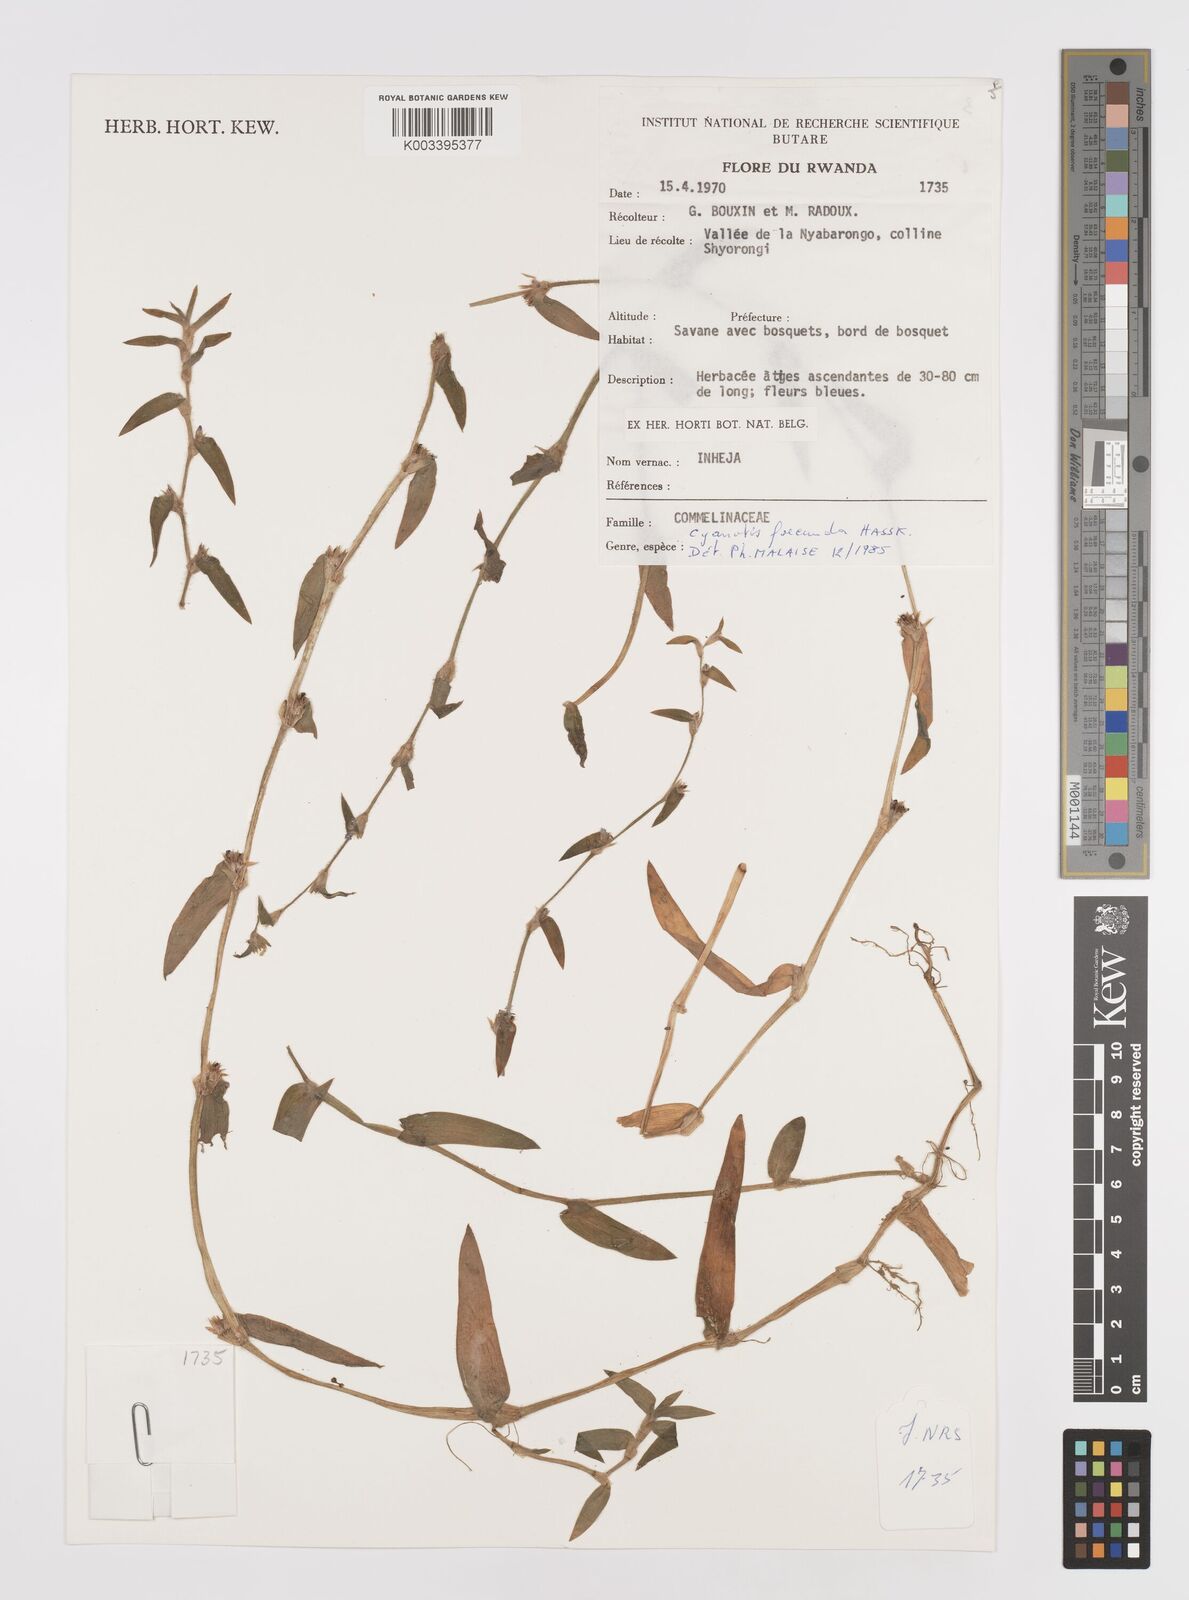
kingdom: Plantae
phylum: Tracheophyta
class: Liliopsida
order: Commelinales
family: Commelinaceae
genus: Cyanotis
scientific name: Cyanotis foecunda
